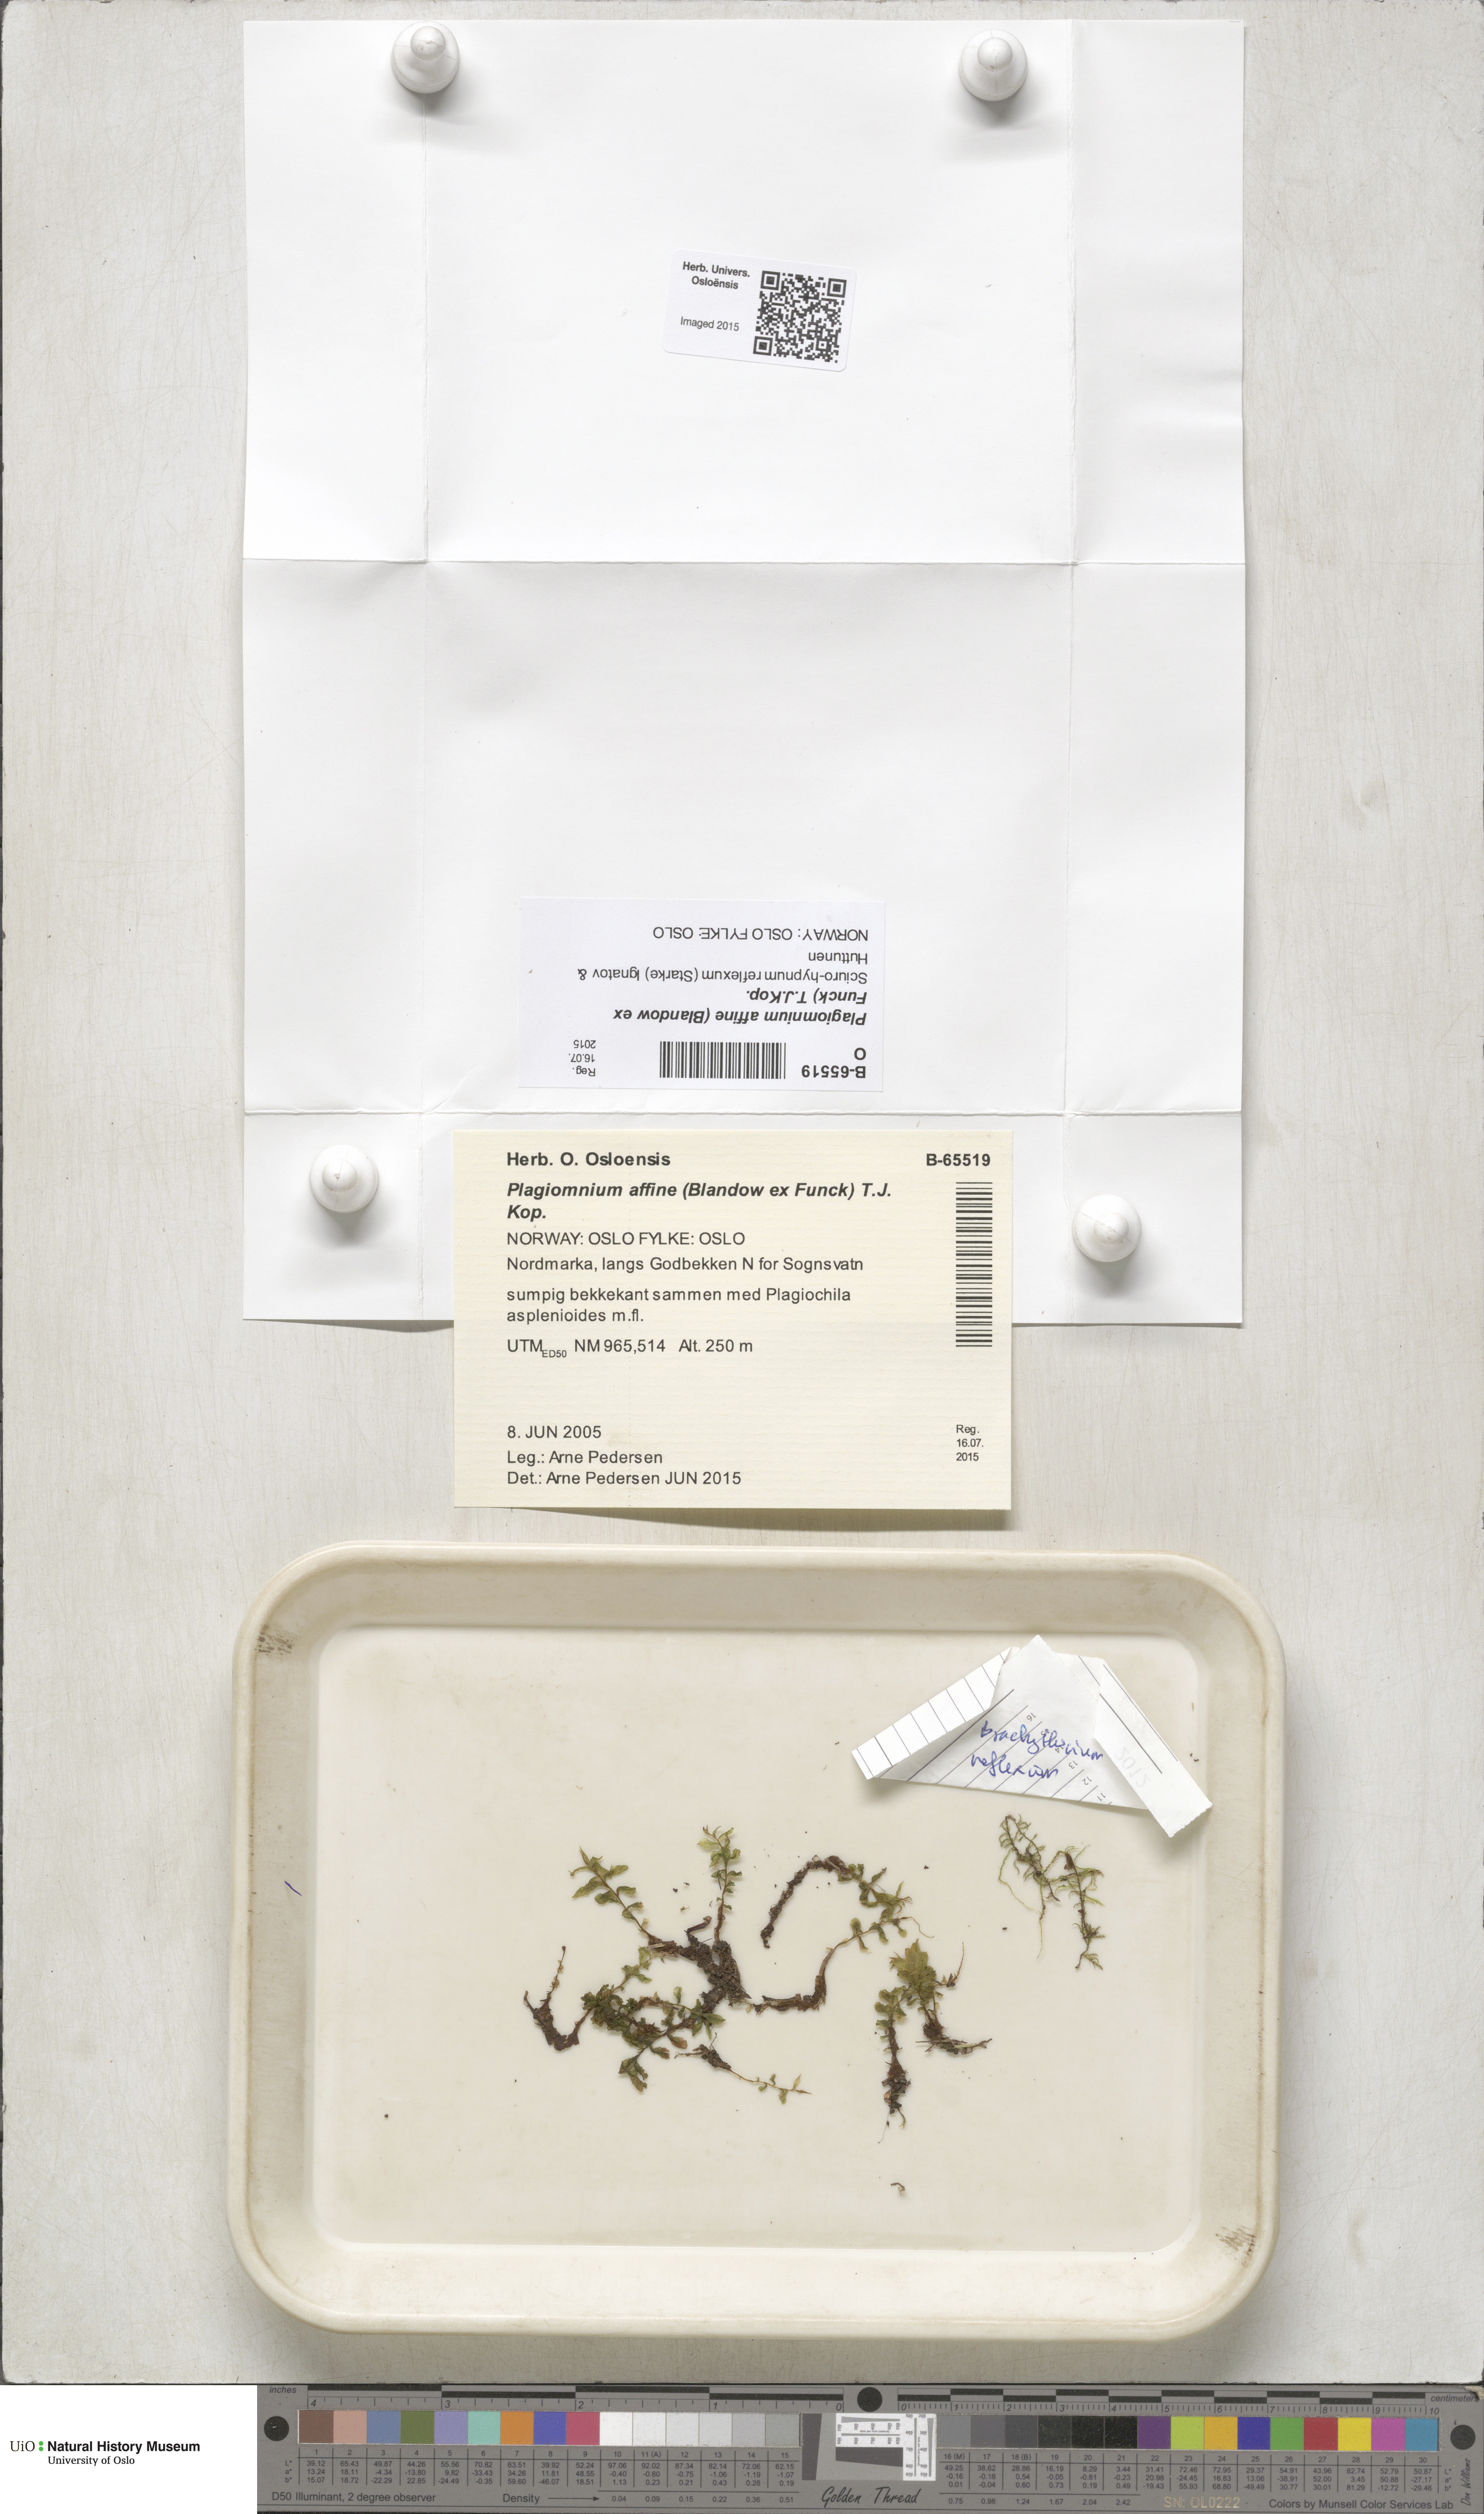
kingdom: Plantae
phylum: Bryophyta
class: Bryopsida
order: Bryales
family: Mniaceae
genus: Plagiomnium
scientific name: Plagiomnium affine
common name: Many-fruited thyme-moss
